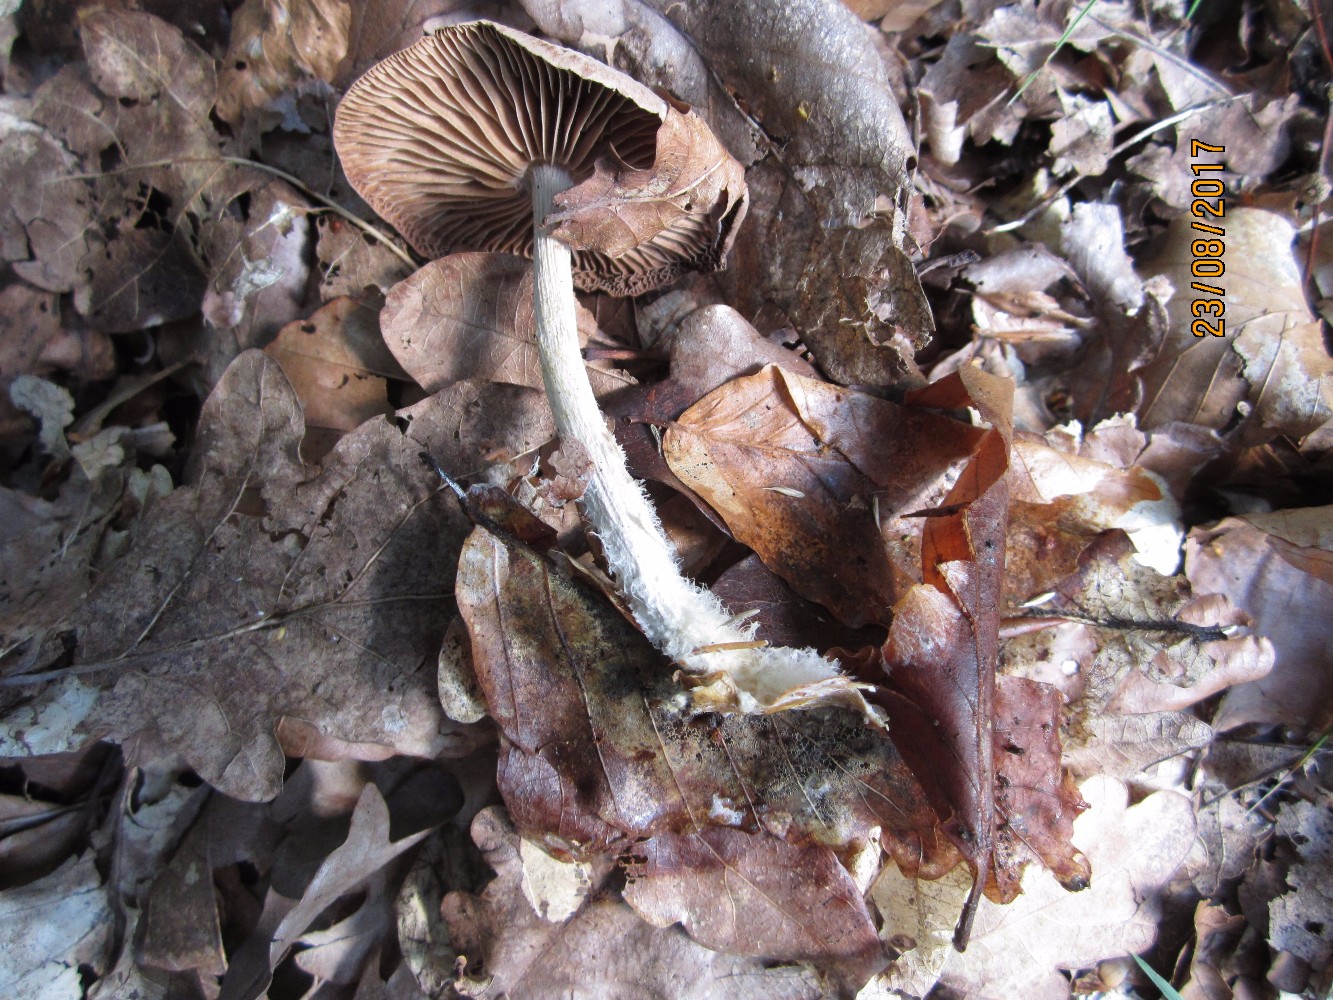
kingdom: Fungi
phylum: Basidiomycota
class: Agaricomycetes
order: Agaricales
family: Omphalotaceae
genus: Collybiopsis
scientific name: Collybiopsis peronata
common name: bestøvlet fladhat
